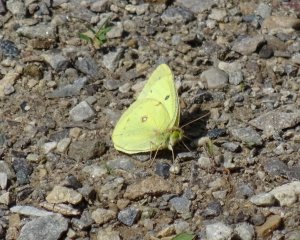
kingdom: Animalia
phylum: Arthropoda
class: Insecta
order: Lepidoptera
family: Pieridae
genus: Colias
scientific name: Colias philodice
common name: Clouded Sulphur
